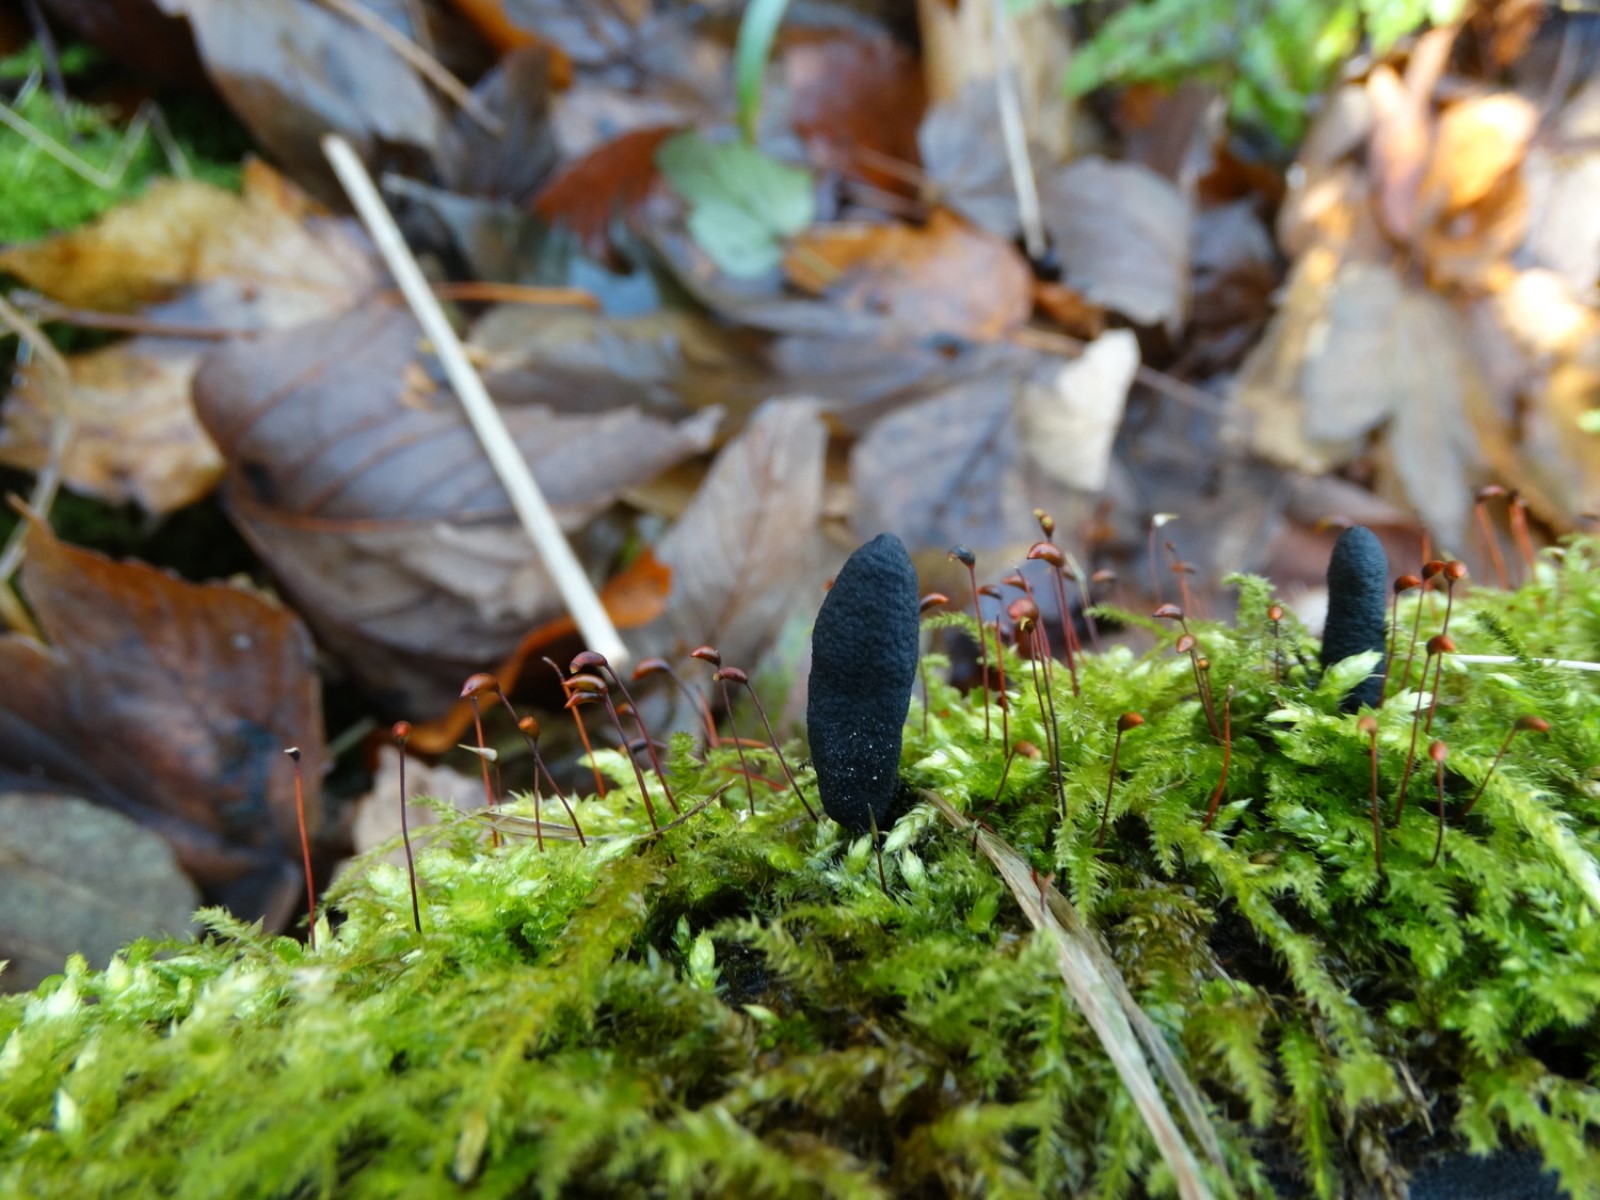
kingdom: Fungi
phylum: Ascomycota
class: Sordariomycetes
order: Xylariales
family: Xylariaceae
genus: Xylaria
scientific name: Xylaria longipes
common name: slank stødsvamp
